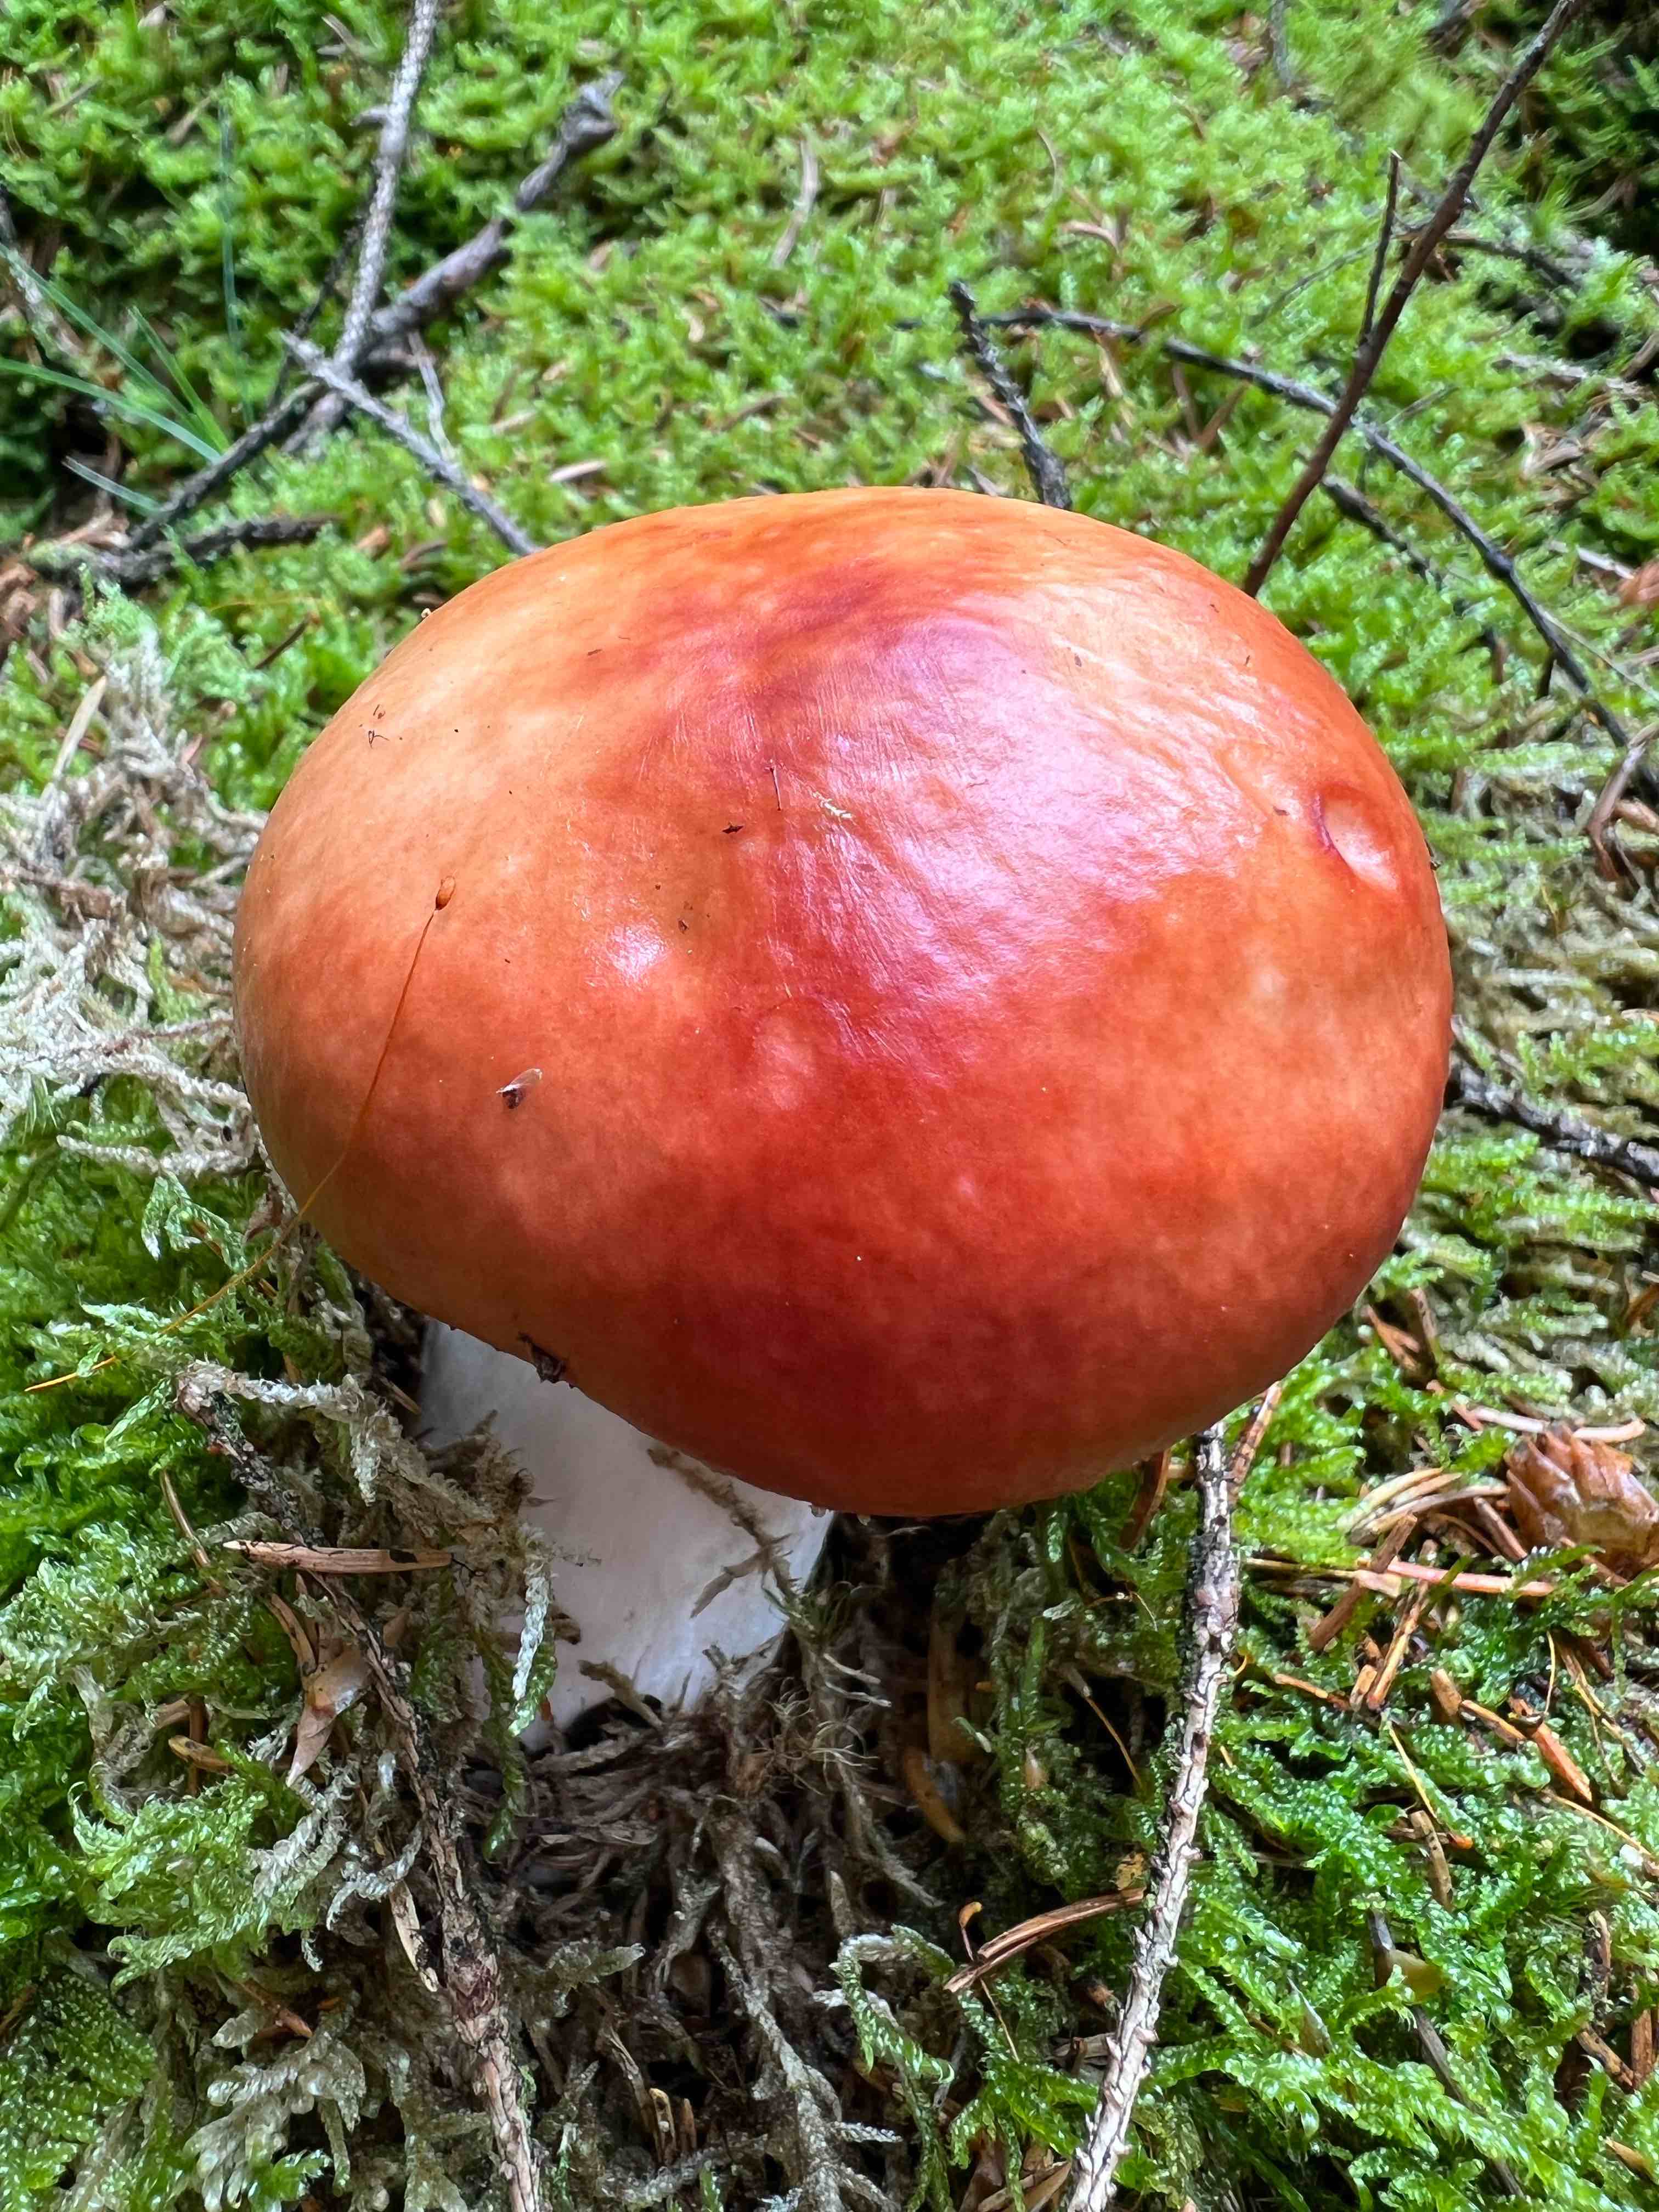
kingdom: Fungi
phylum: Basidiomycota
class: Agaricomycetes
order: Russulales
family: Russulaceae
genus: Russula
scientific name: Russula paludosa
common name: prægtig skørhat
